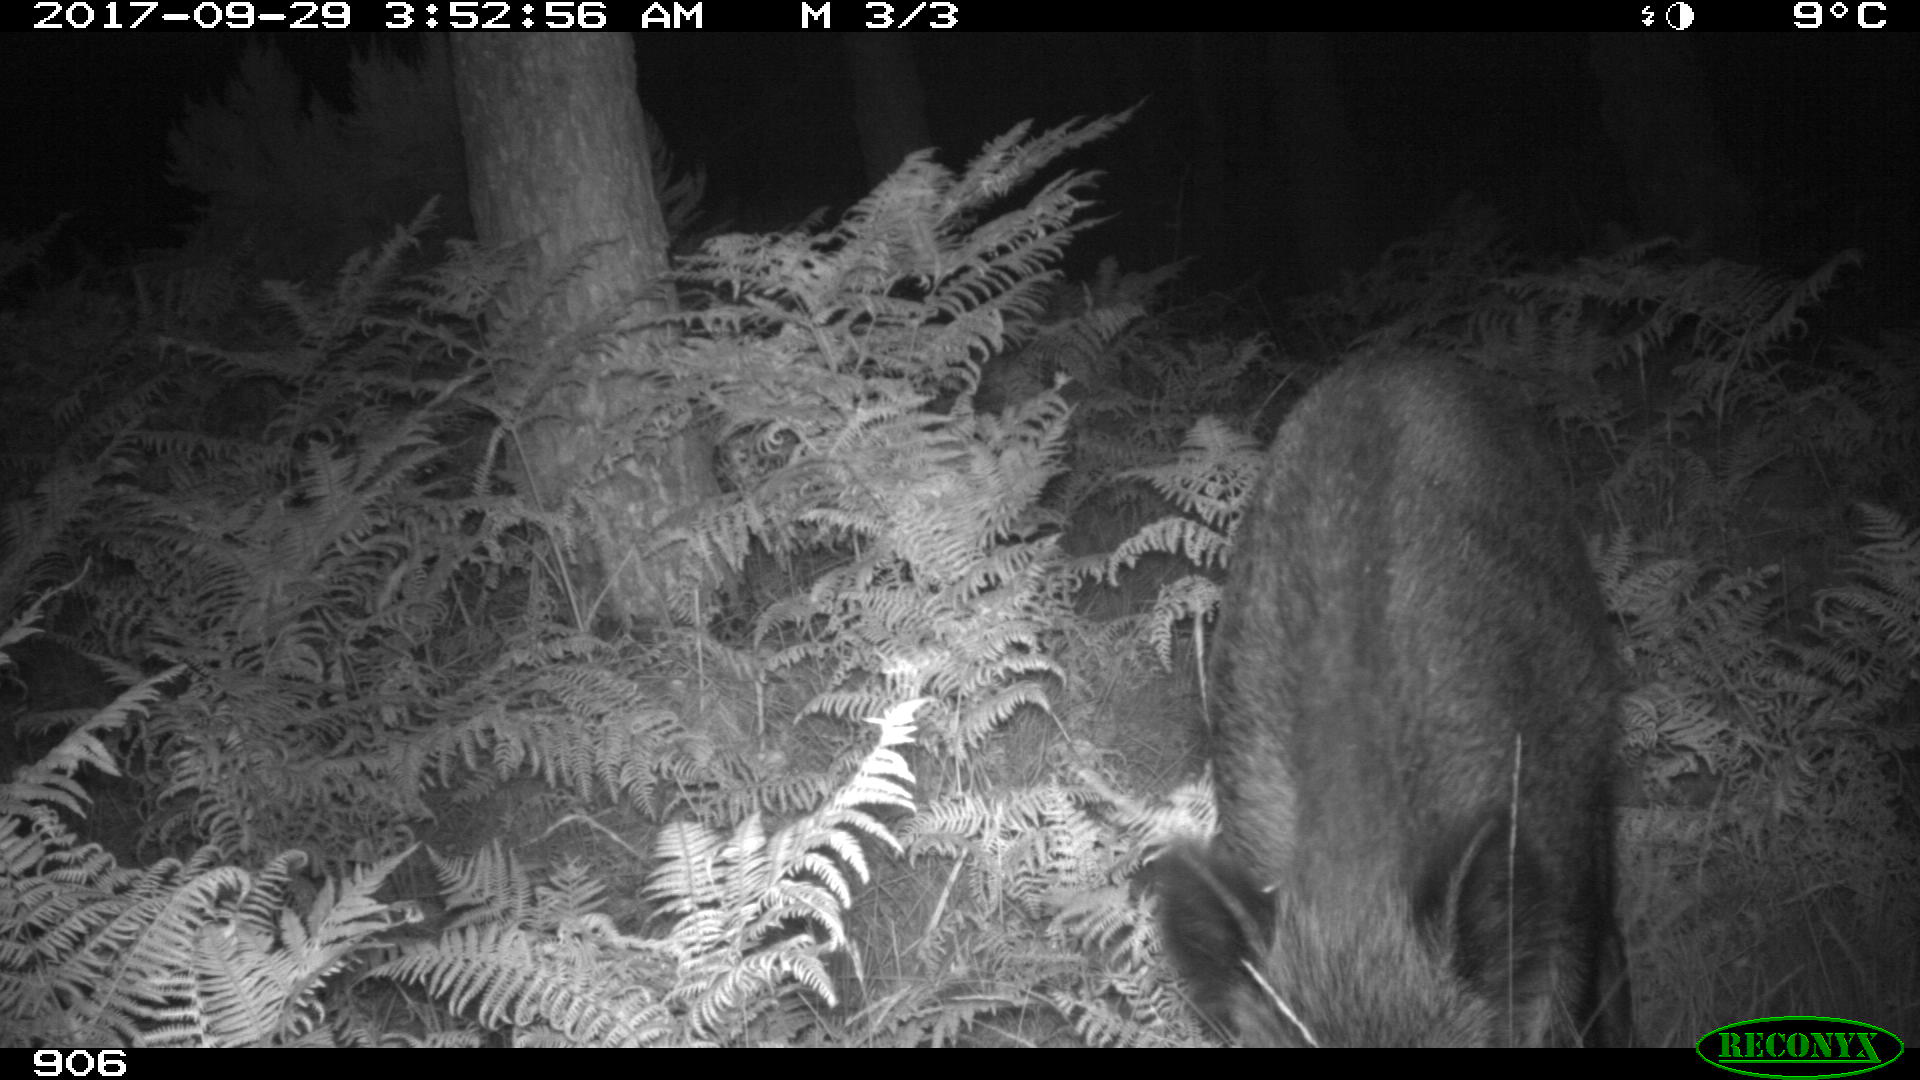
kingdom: Animalia
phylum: Chordata
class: Mammalia
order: Artiodactyla
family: Suidae
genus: Sus
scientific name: Sus scrofa
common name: Wild boar
